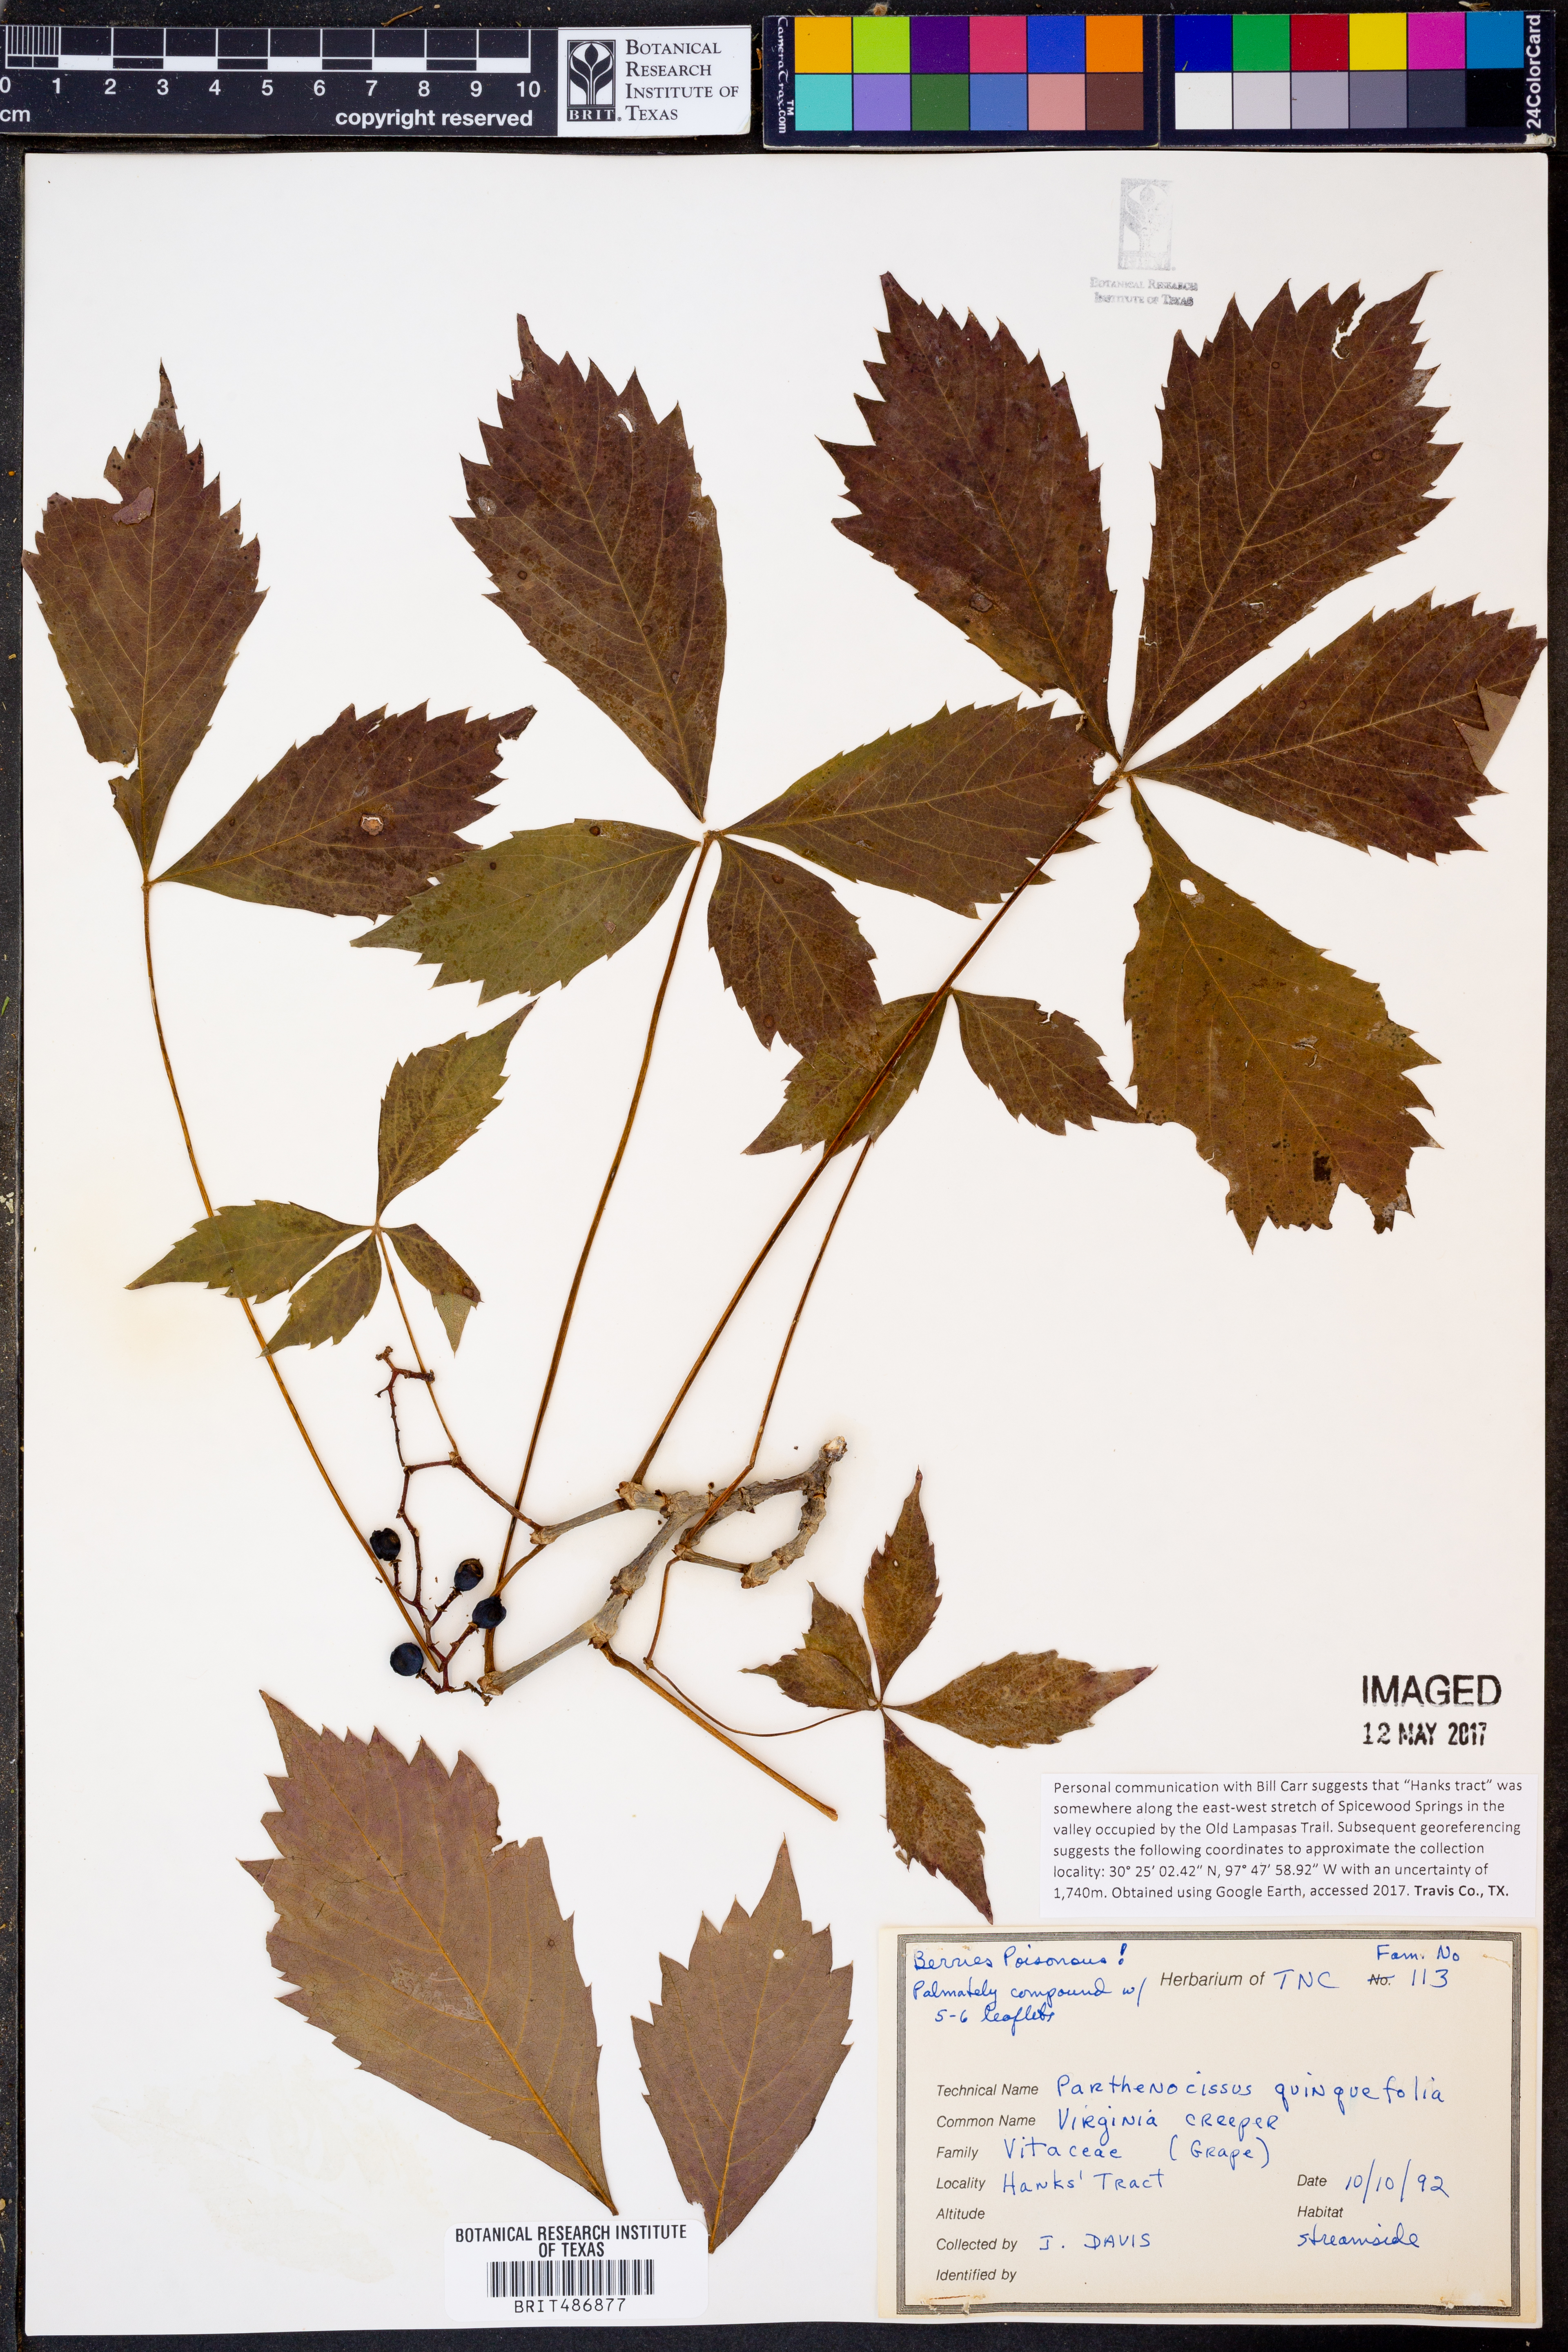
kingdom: Plantae
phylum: Tracheophyta
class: Magnoliopsida
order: Vitales
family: Vitaceae
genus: Parthenocissus
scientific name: Parthenocissus quinquefolia
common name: Virginia-creeper
